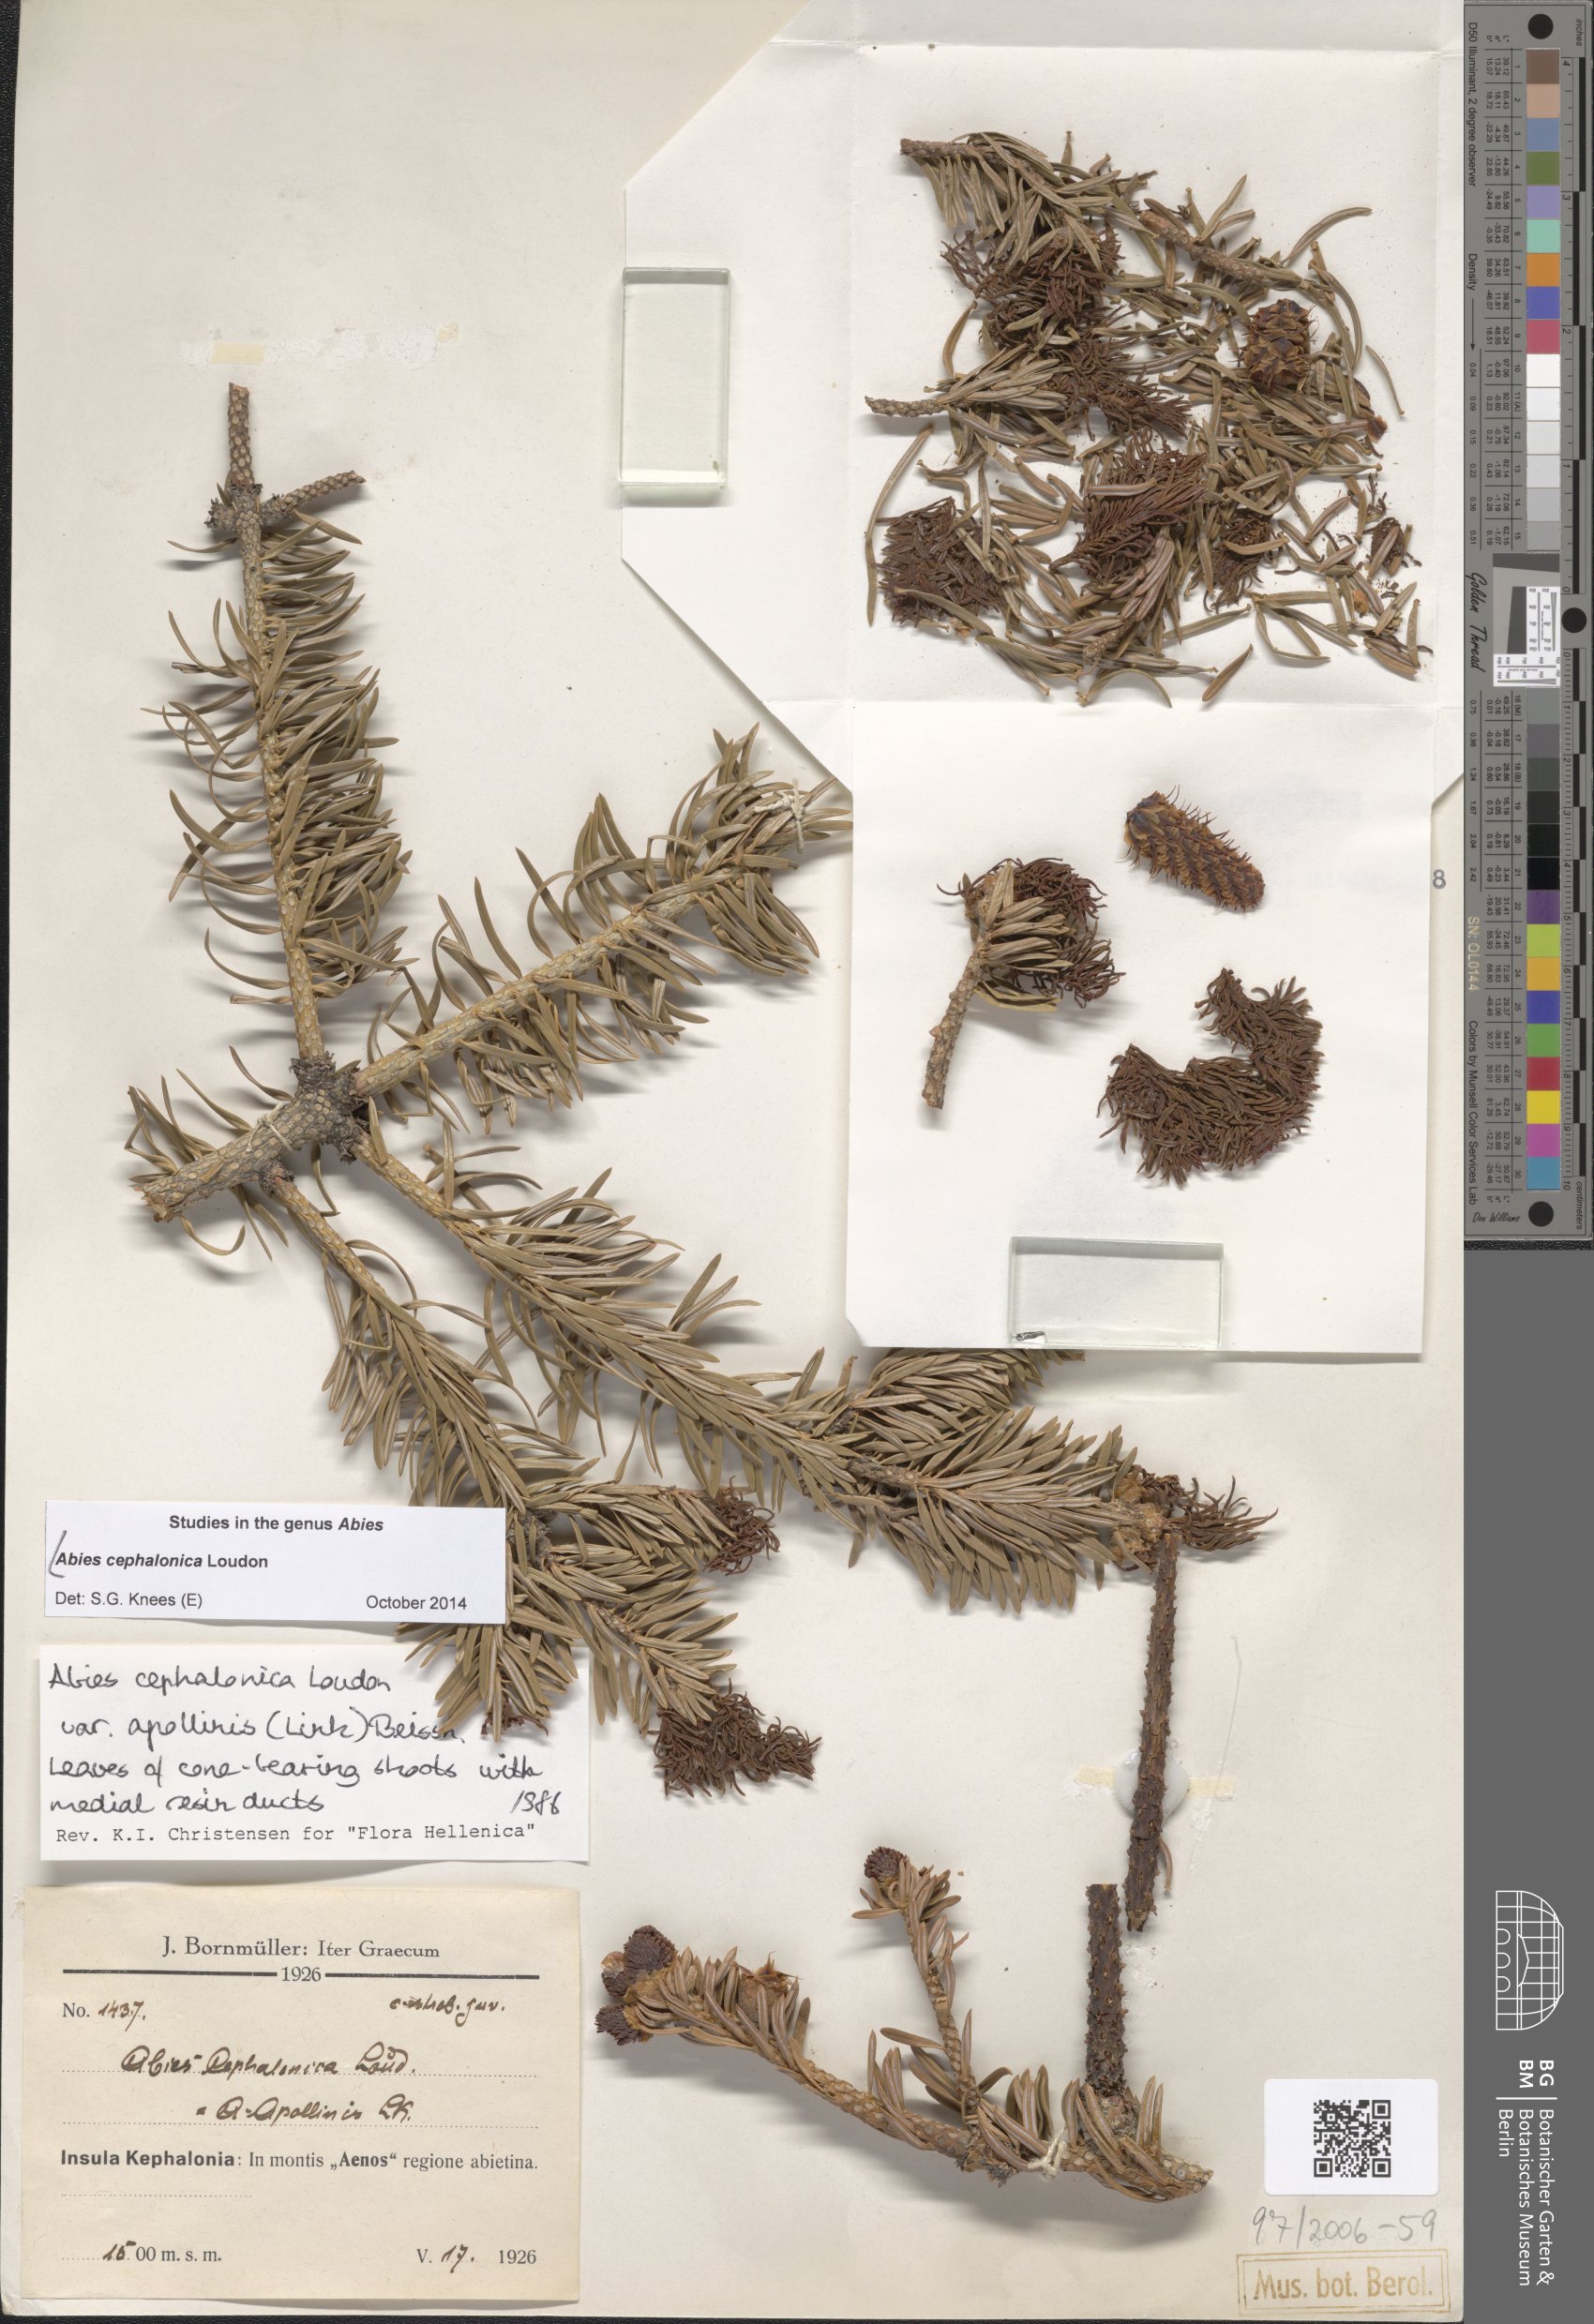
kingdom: Plantae
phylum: Tracheophyta
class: Pinopsida
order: Pinales
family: Pinaceae
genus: Abies
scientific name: Abies cephalonica
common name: Greek fir
